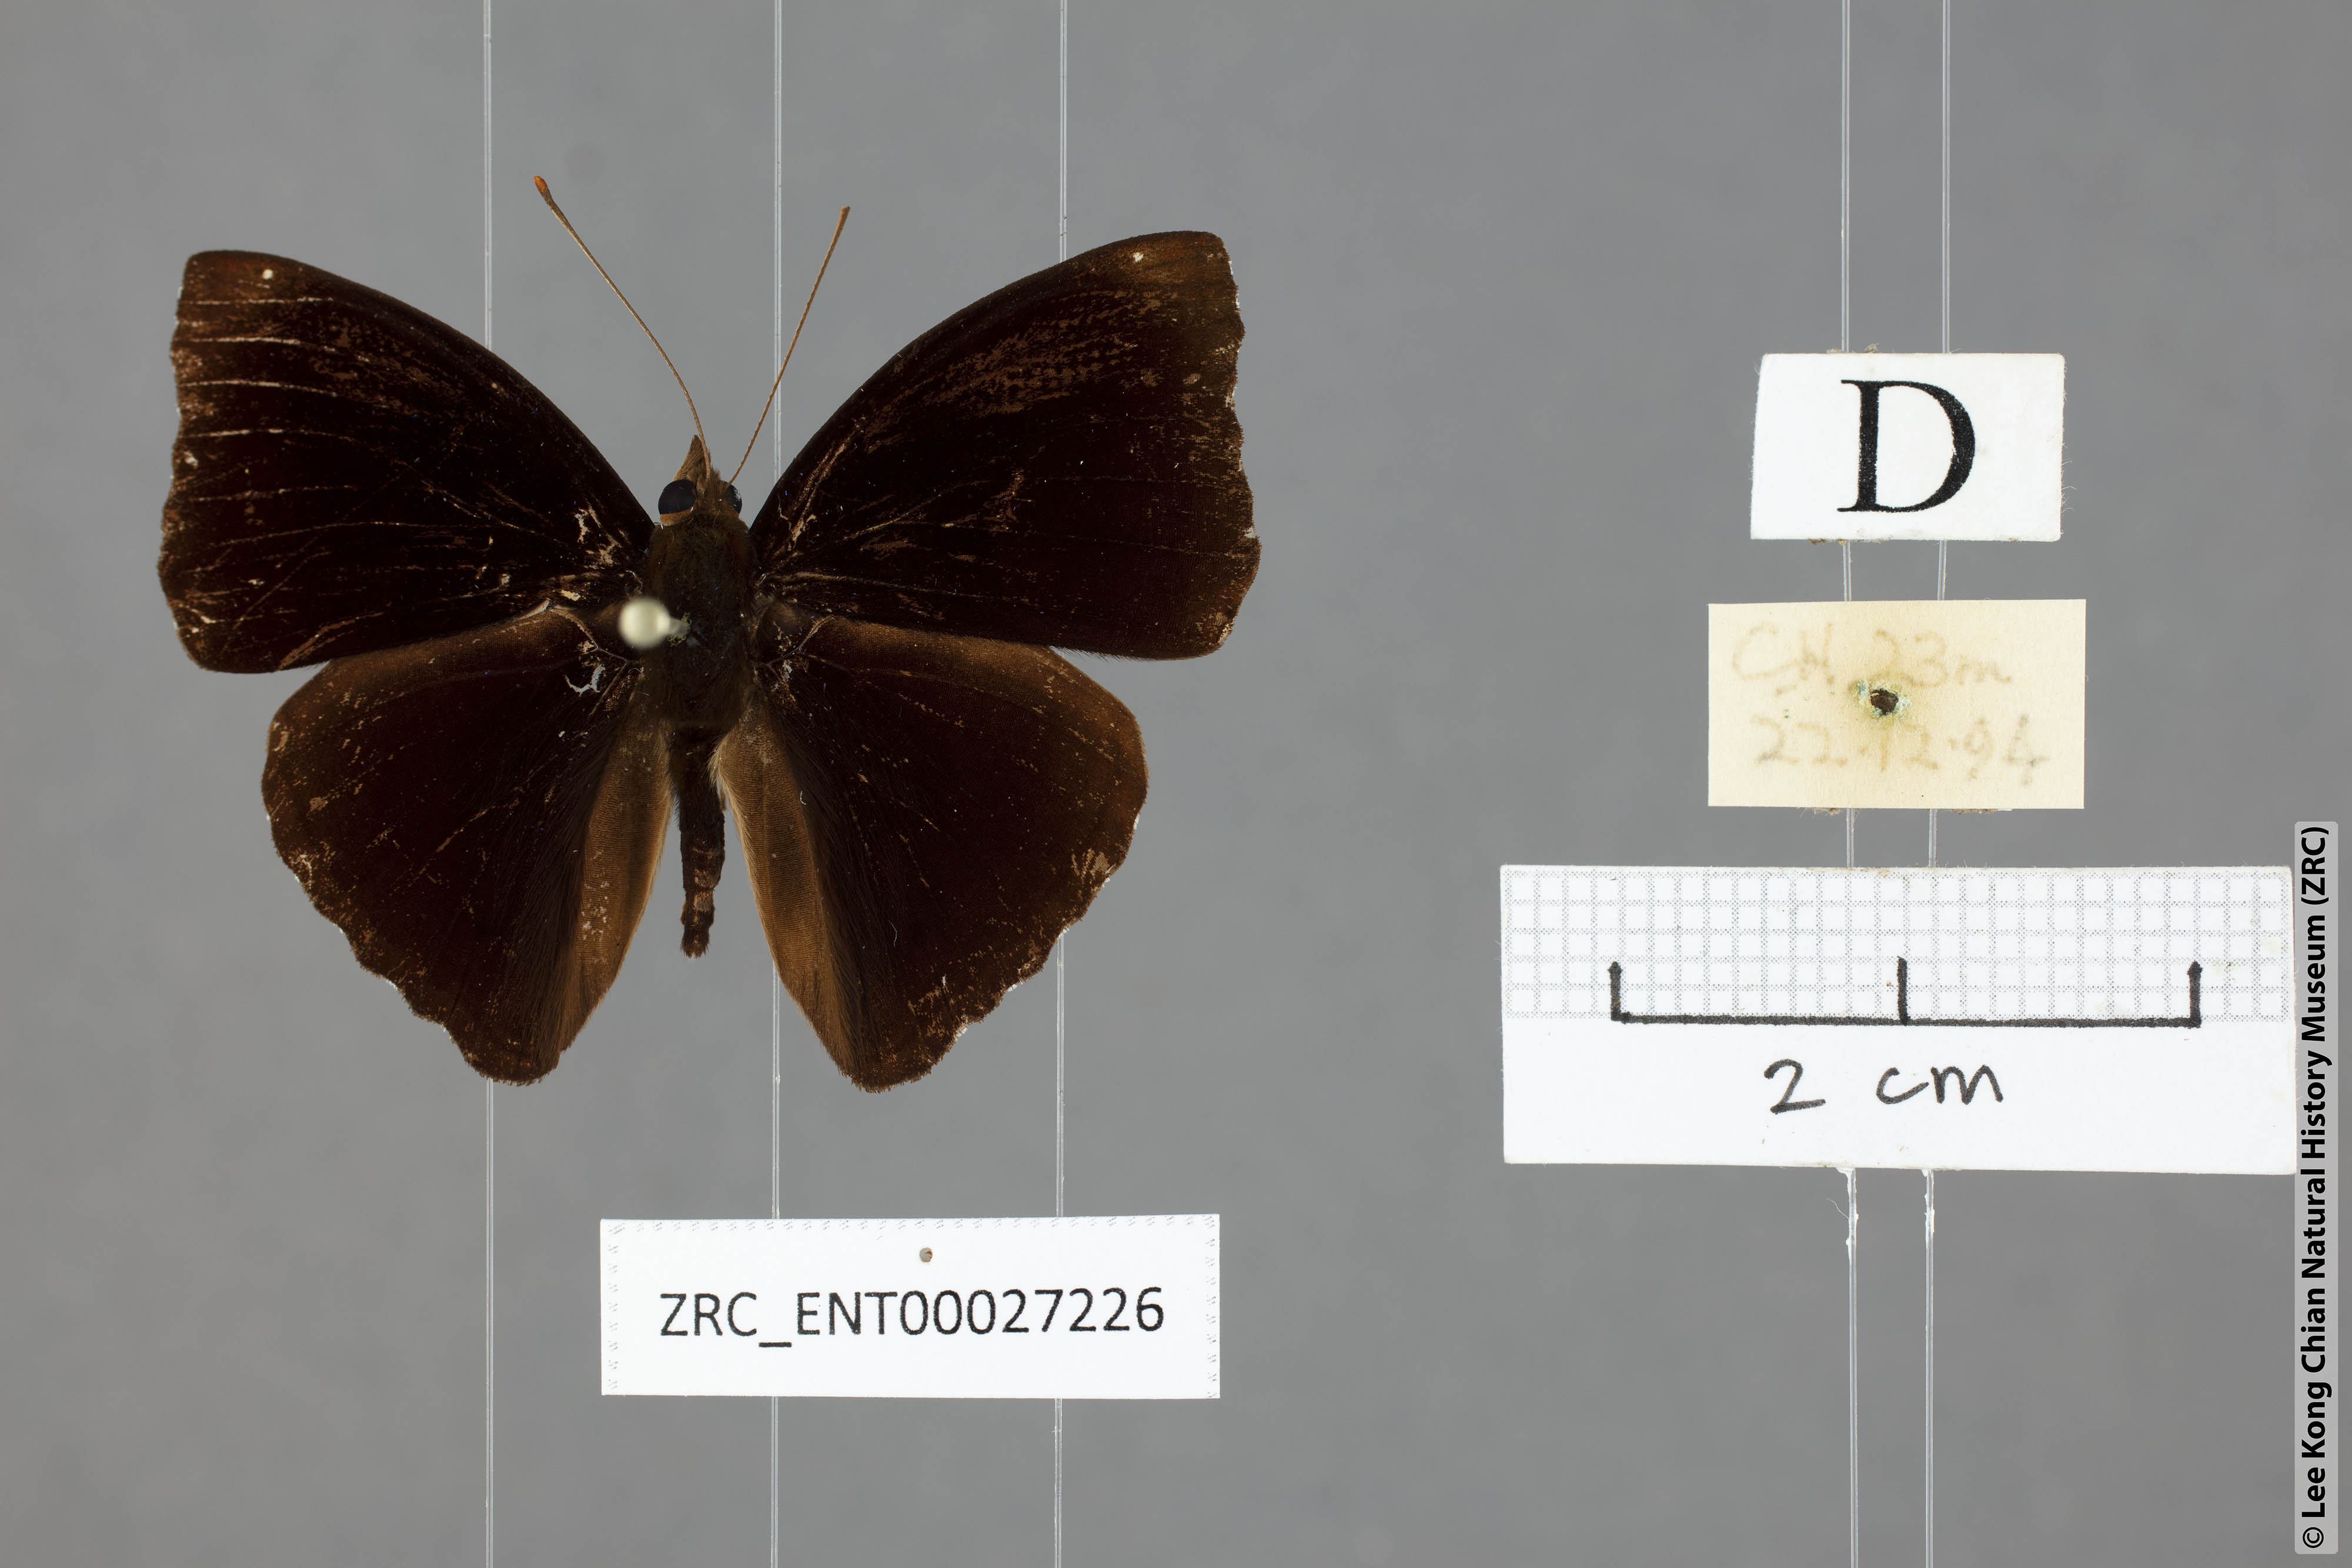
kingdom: Animalia
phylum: Arthropoda
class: Insecta
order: Lepidoptera
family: Nymphalidae
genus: Apatura
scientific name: Apatura Rohana spec
